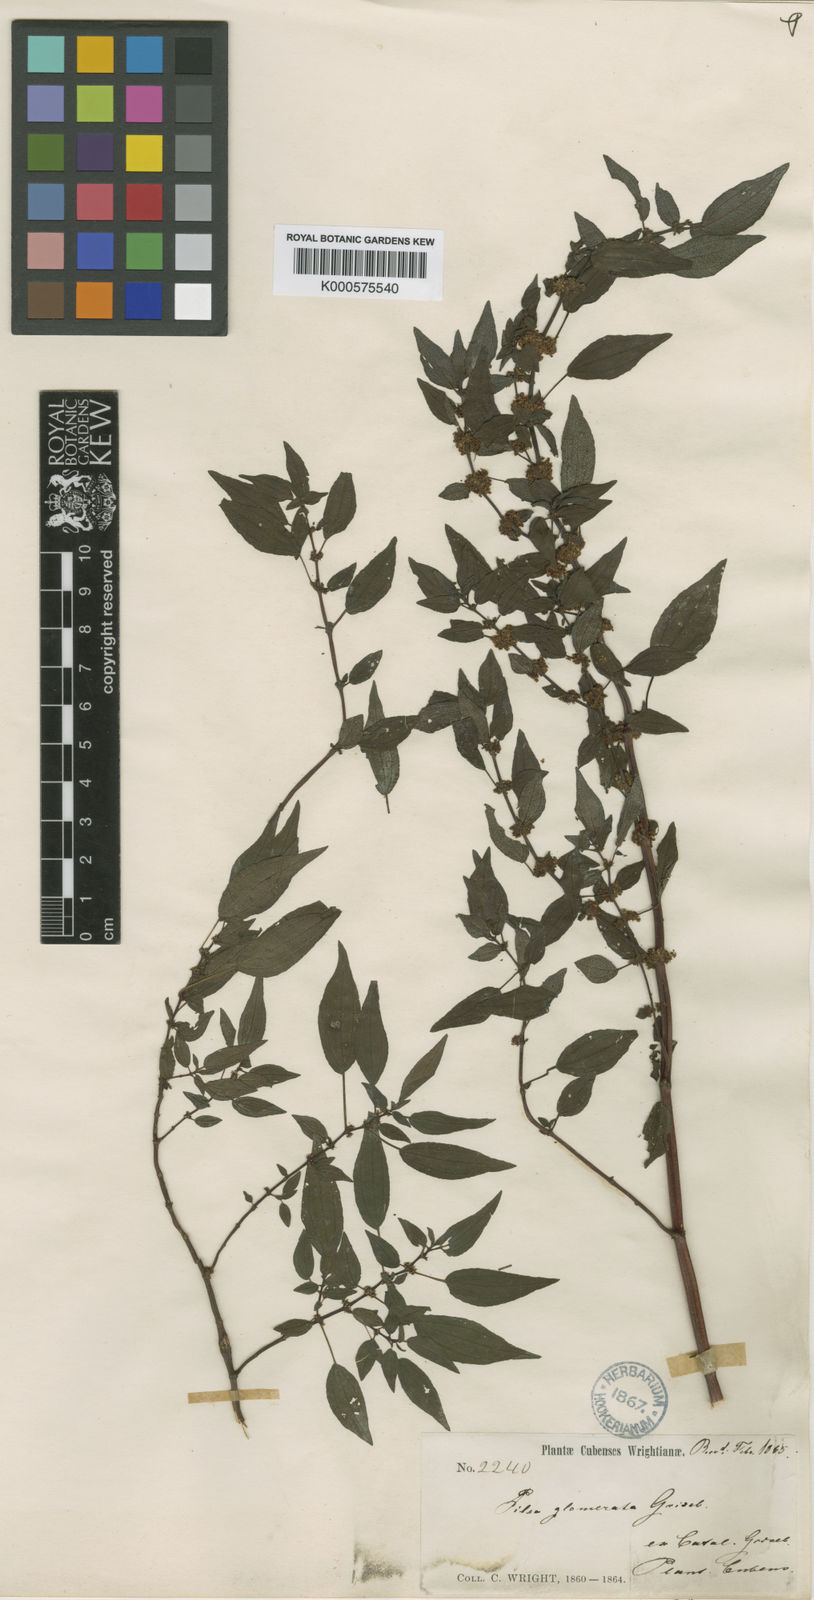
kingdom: Plantae
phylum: Tracheophyta
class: Magnoliopsida
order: Rosales
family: Urticaceae
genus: Pilea
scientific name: Pilea glomerata
